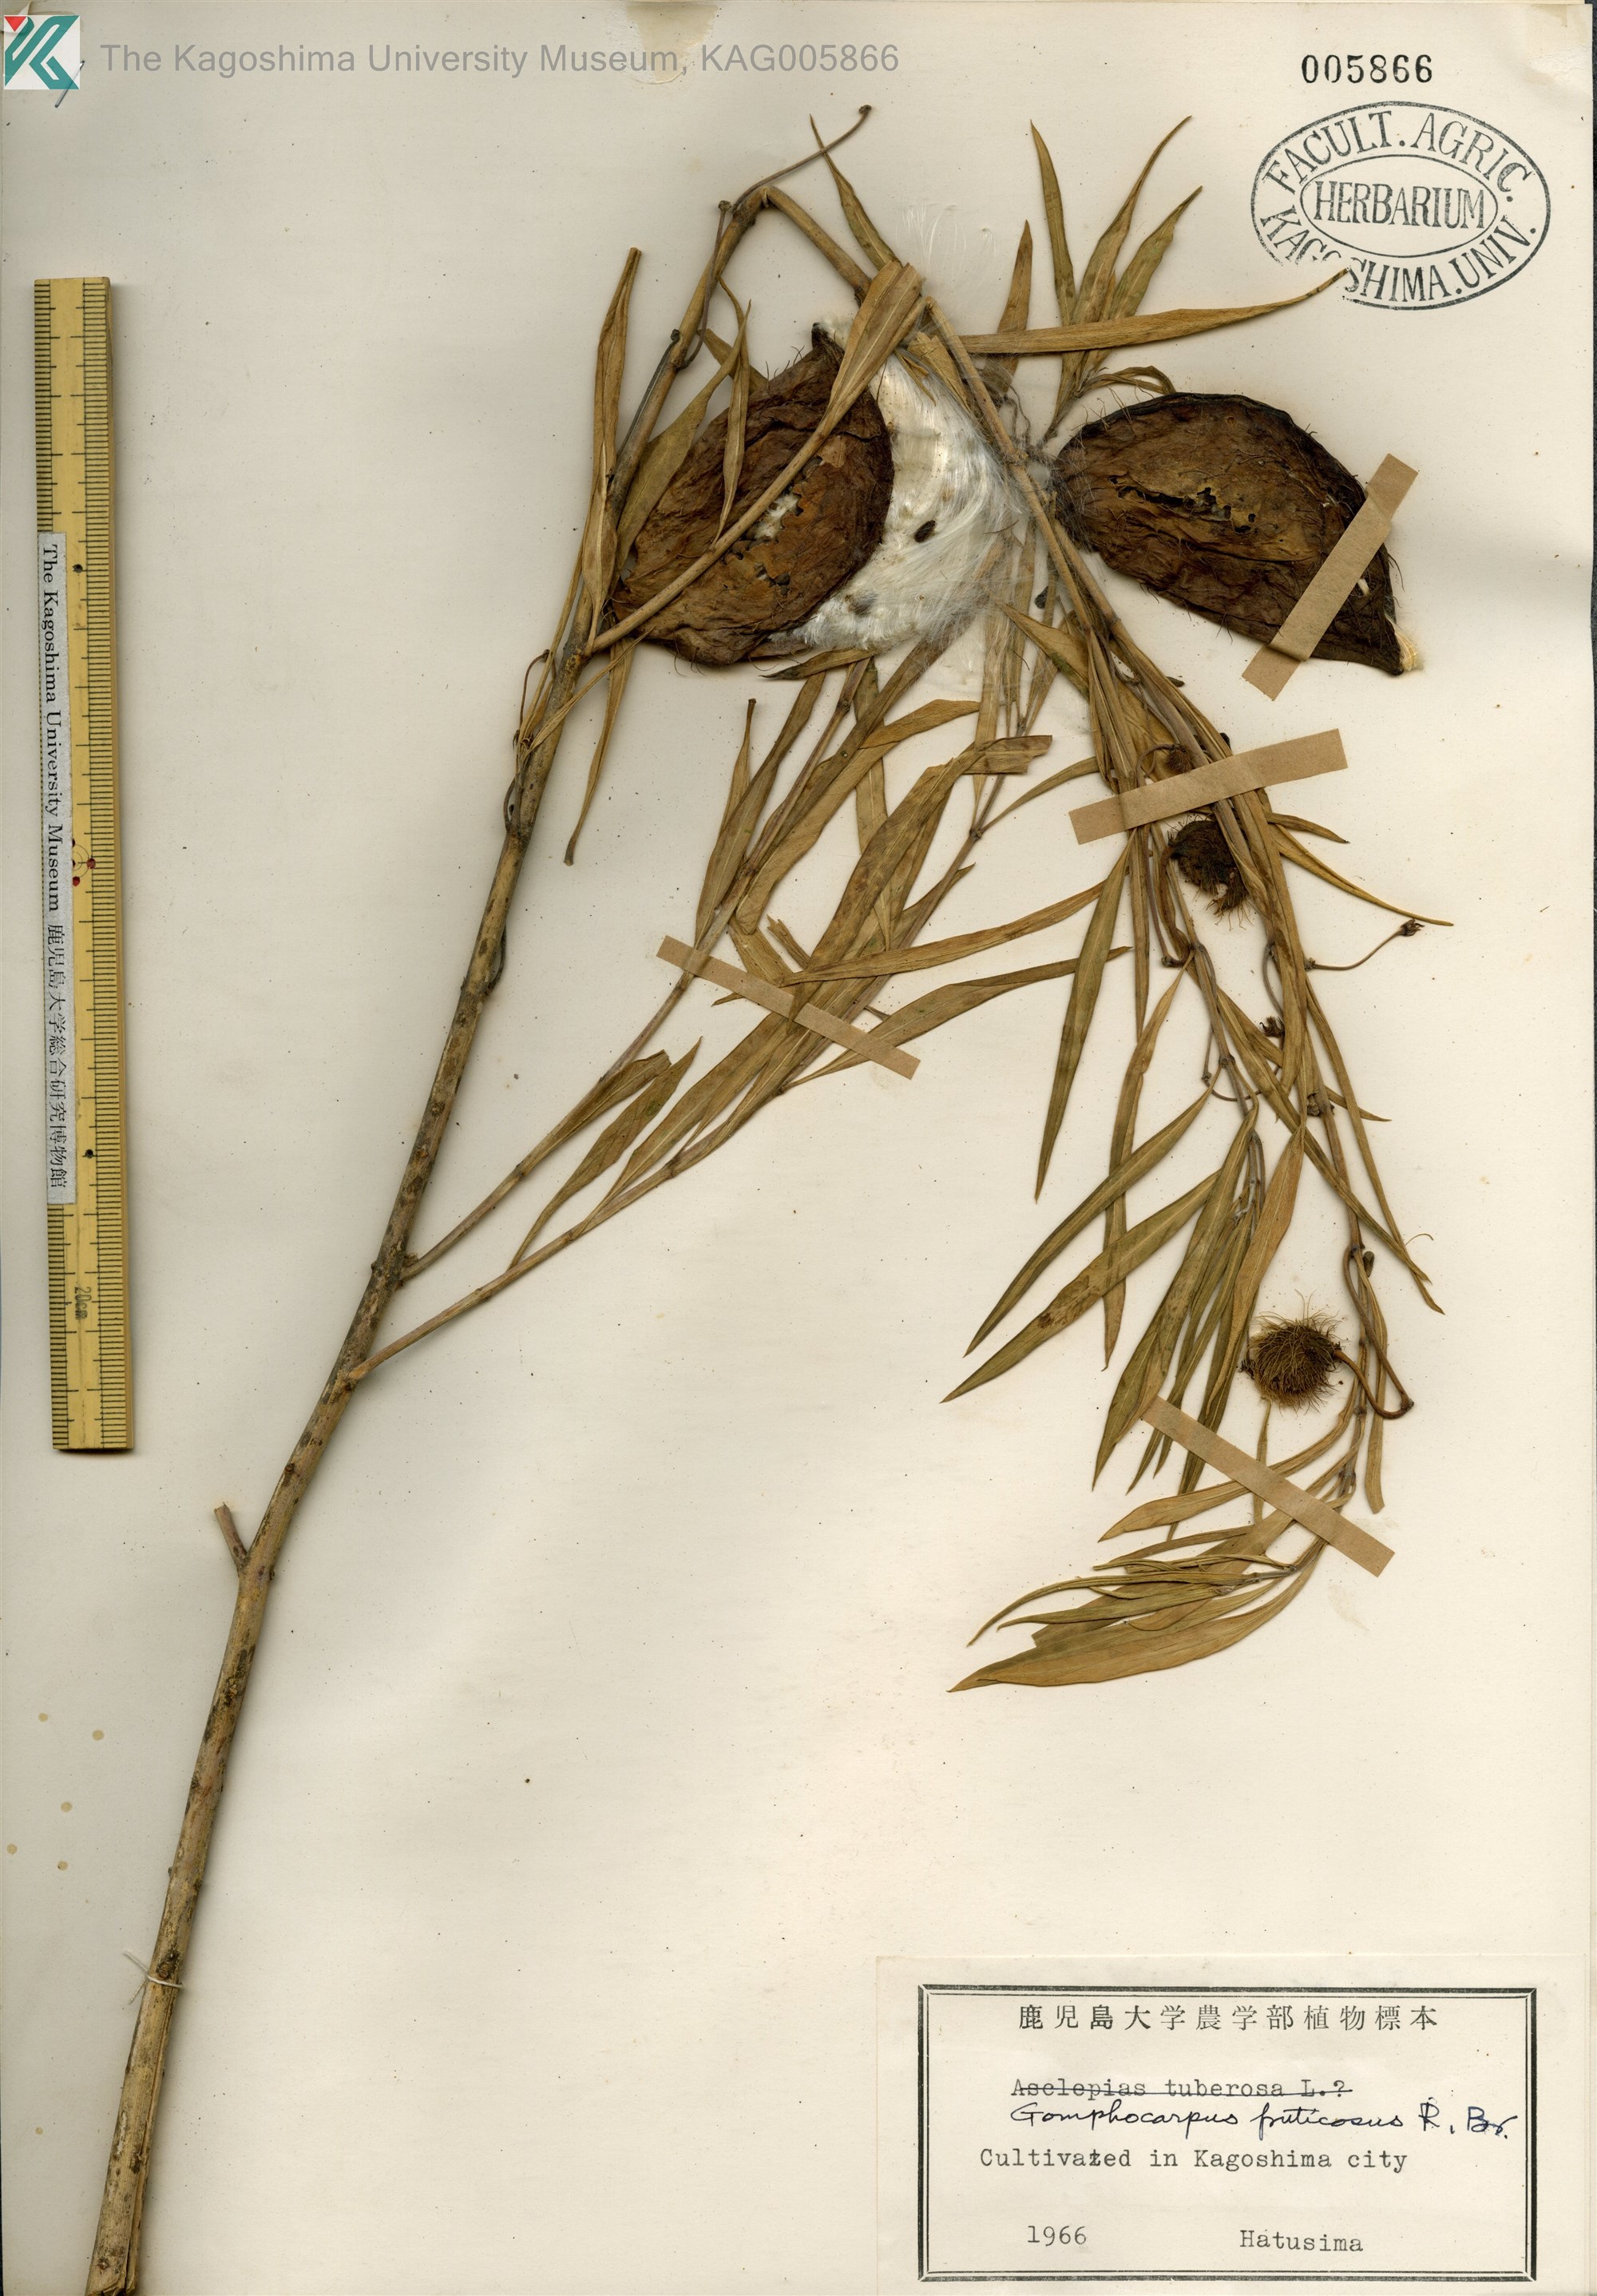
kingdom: Plantae
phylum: Tracheophyta
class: Magnoliopsida
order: Gentianales
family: Apocynaceae
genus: Gomphocarpus
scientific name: Gomphocarpus fruticosus
